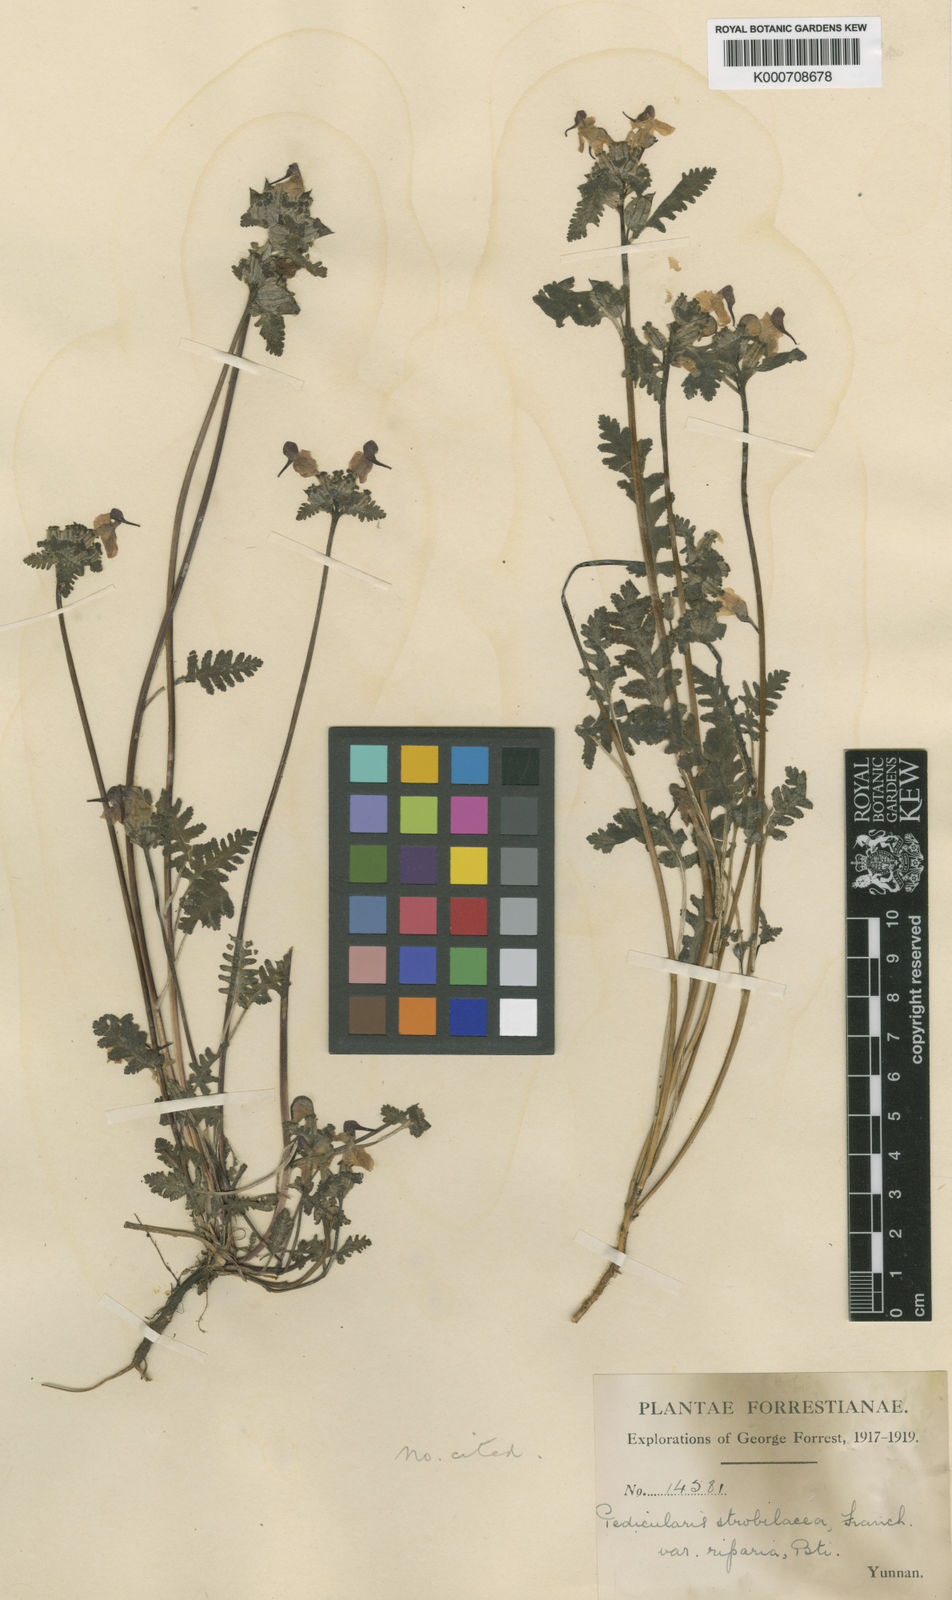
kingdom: Plantae
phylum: Tracheophyta
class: Magnoliopsida
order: Lamiales
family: Orobanchaceae
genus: Pedicularis
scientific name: Pedicularis
